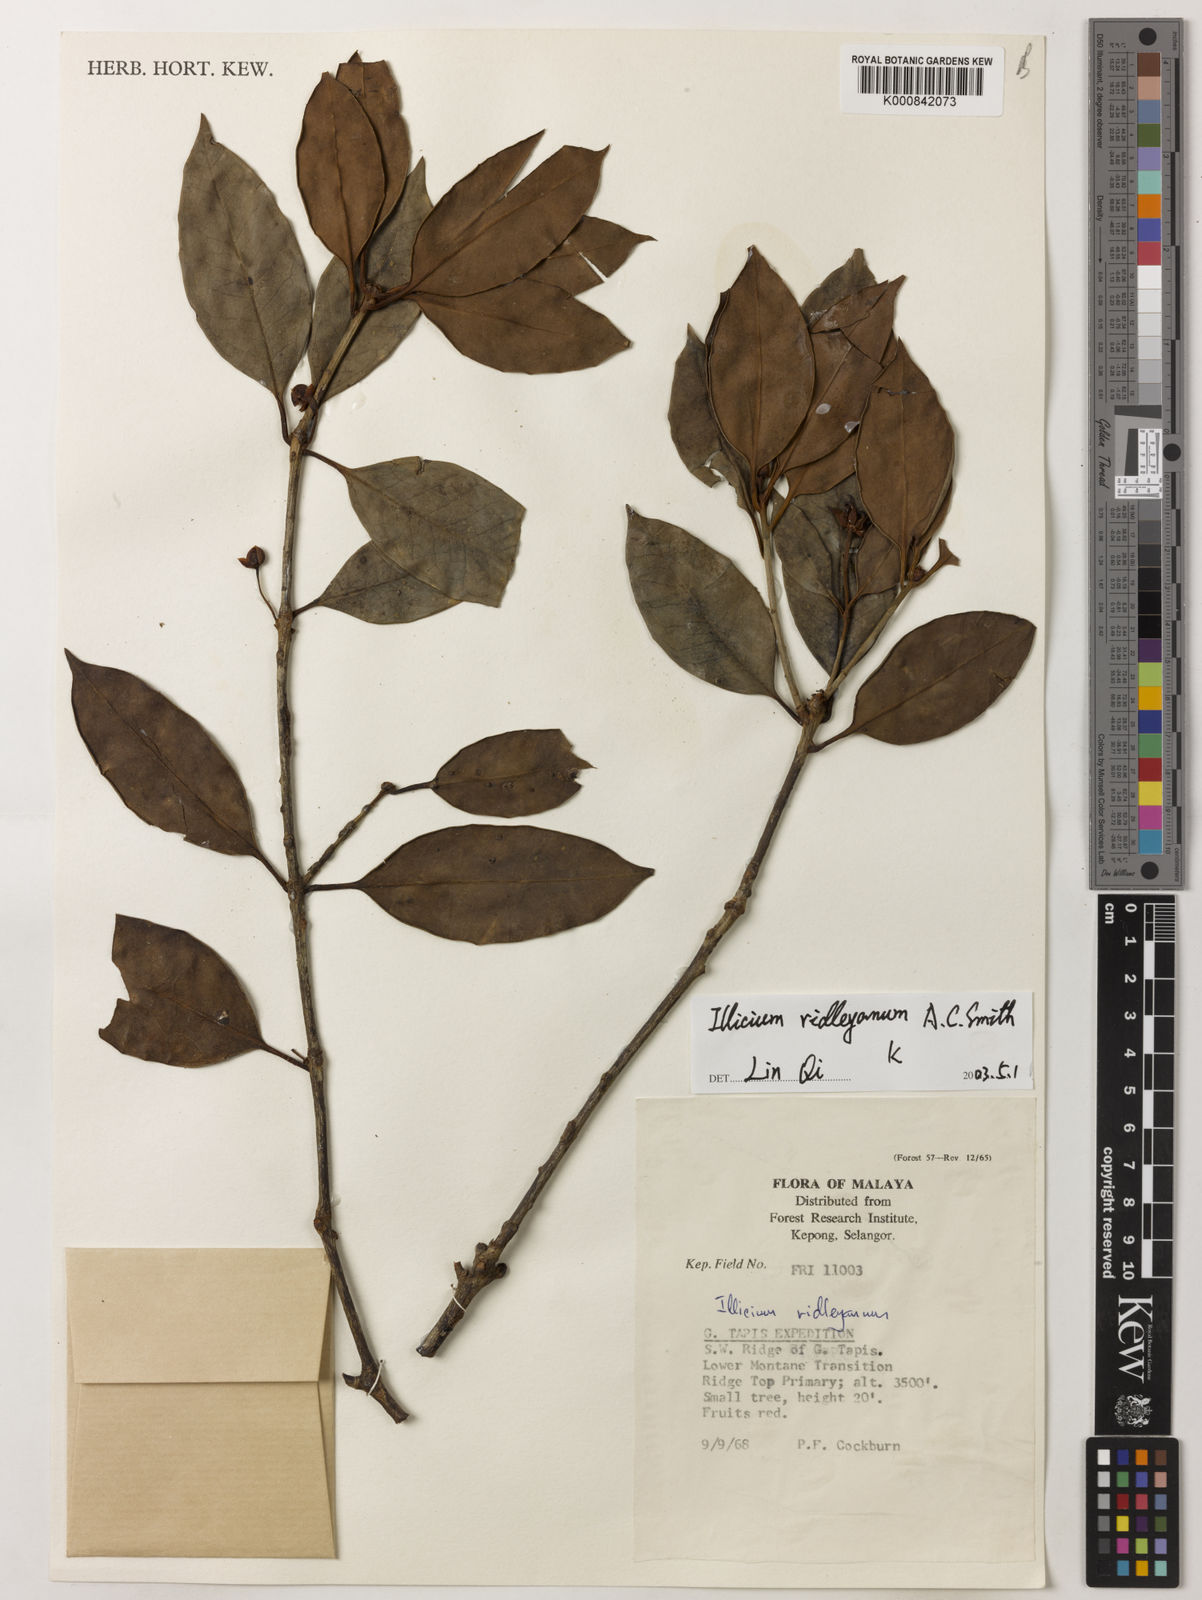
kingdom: Plantae
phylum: Tracheophyta
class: Magnoliopsida
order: Austrobaileyales
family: Schisandraceae
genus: Illicium
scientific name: Illicium ridleyanum
